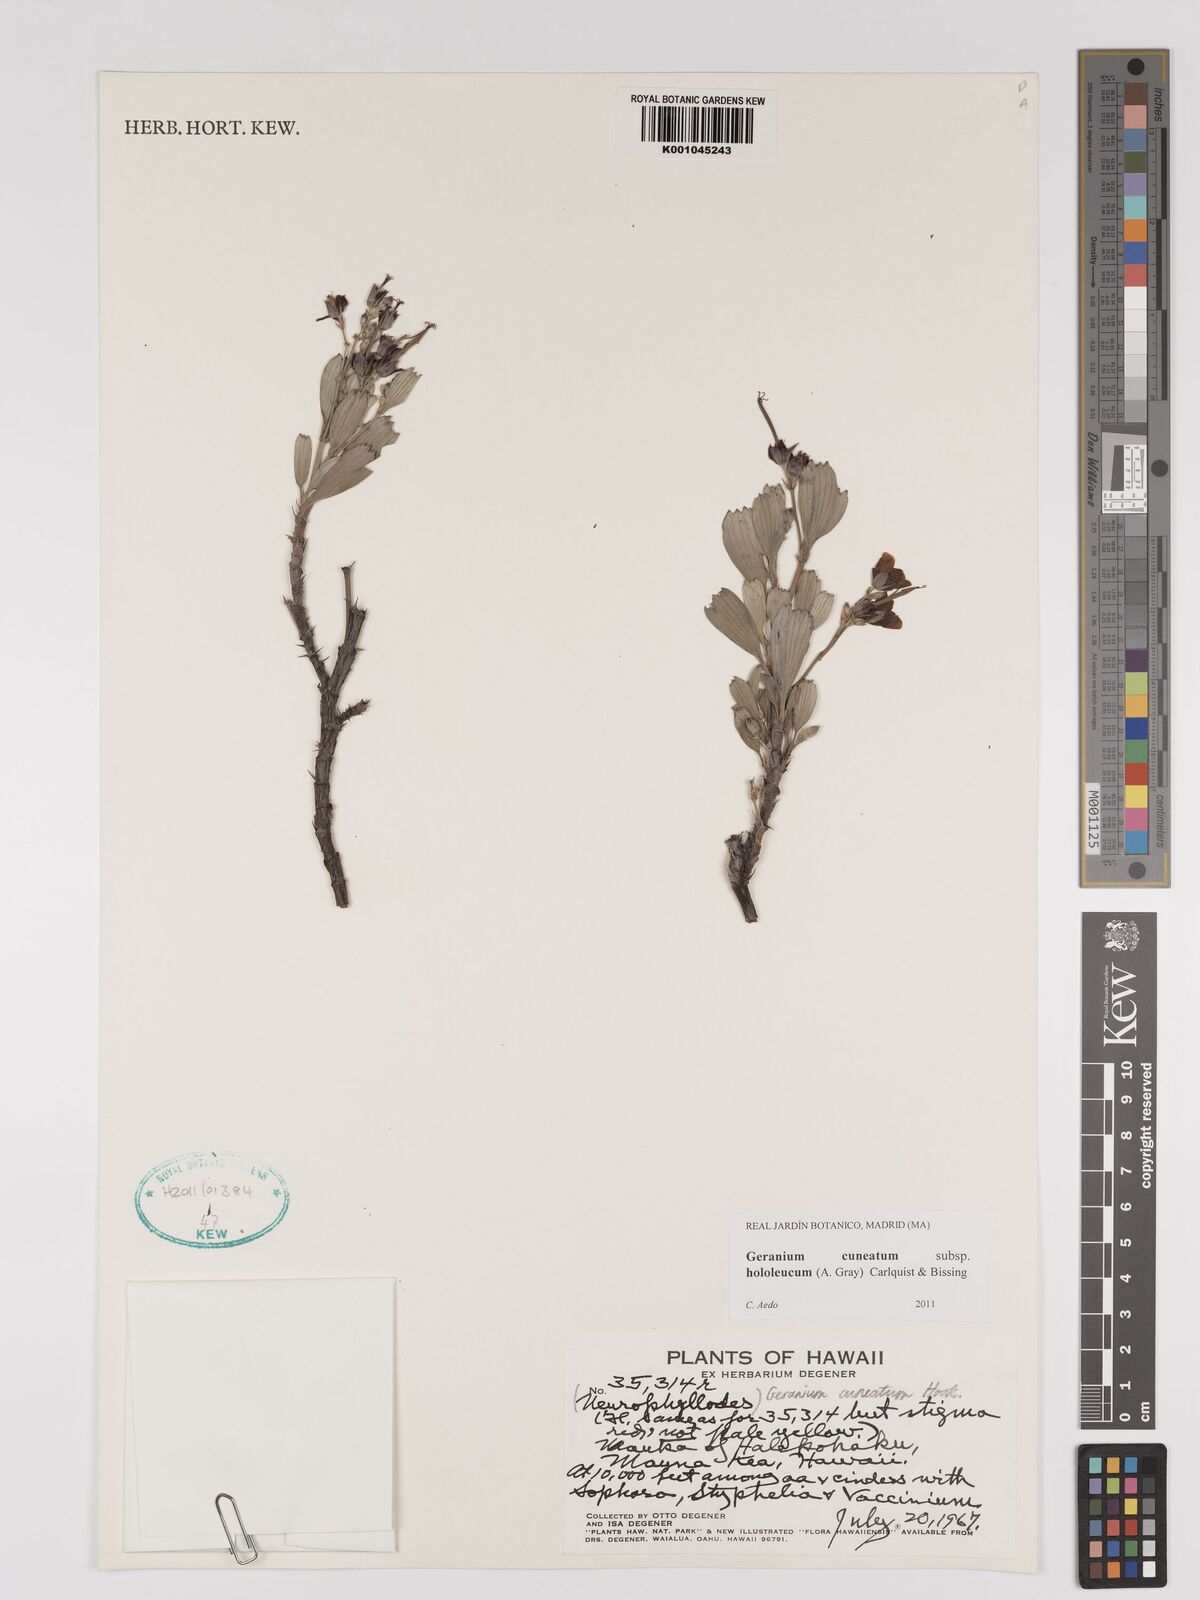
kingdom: Plantae
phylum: Tracheophyta
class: Magnoliopsida
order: Geraniales
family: Geraniaceae
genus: Geranium
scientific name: Geranium cuneatum
